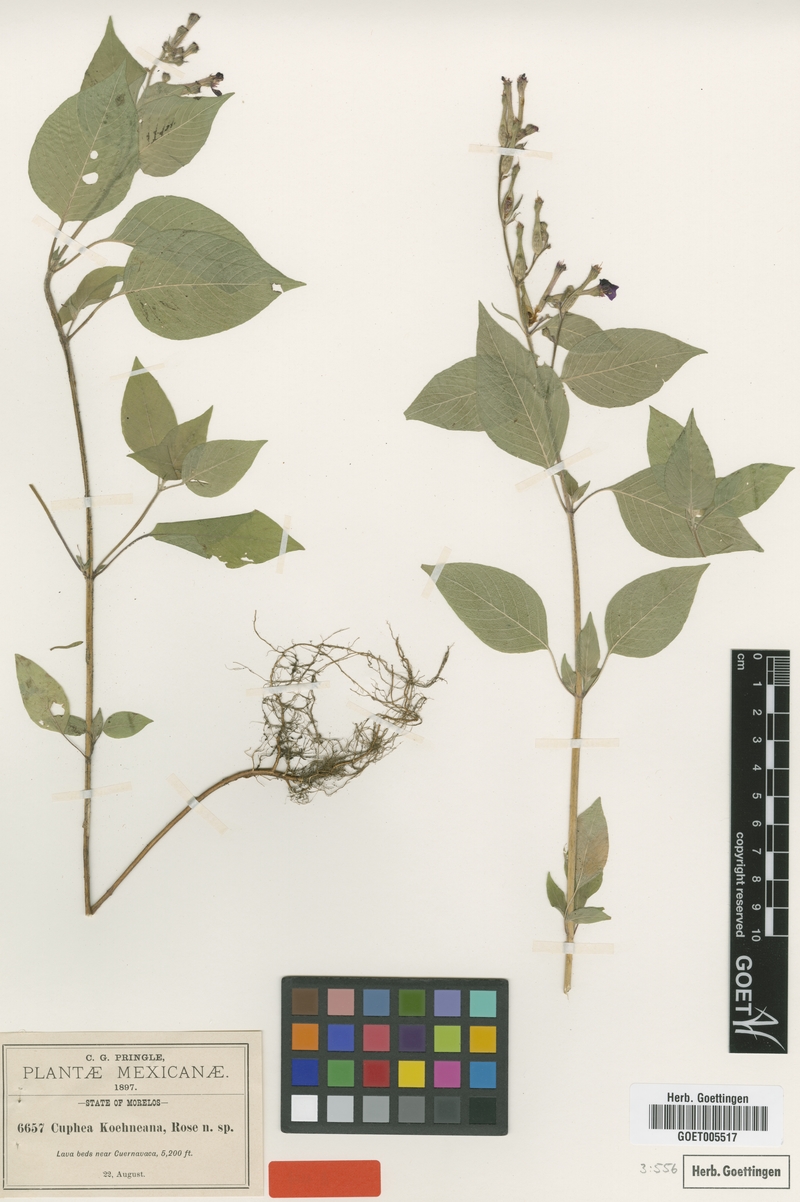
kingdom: Plantae
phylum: Tracheophyta
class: Magnoliopsida
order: Myrtales
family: Lythraceae
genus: Cuphea
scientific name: Cuphea koehneana
